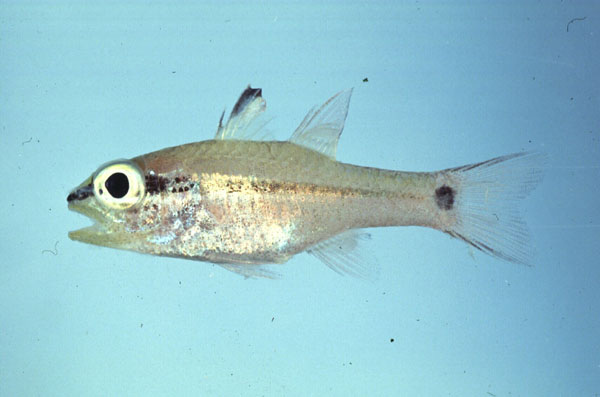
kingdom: Animalia
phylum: Chordata
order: Perciformes
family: Apogonidae
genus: Pristiapogon
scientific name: Pristiapogon fraenatus
